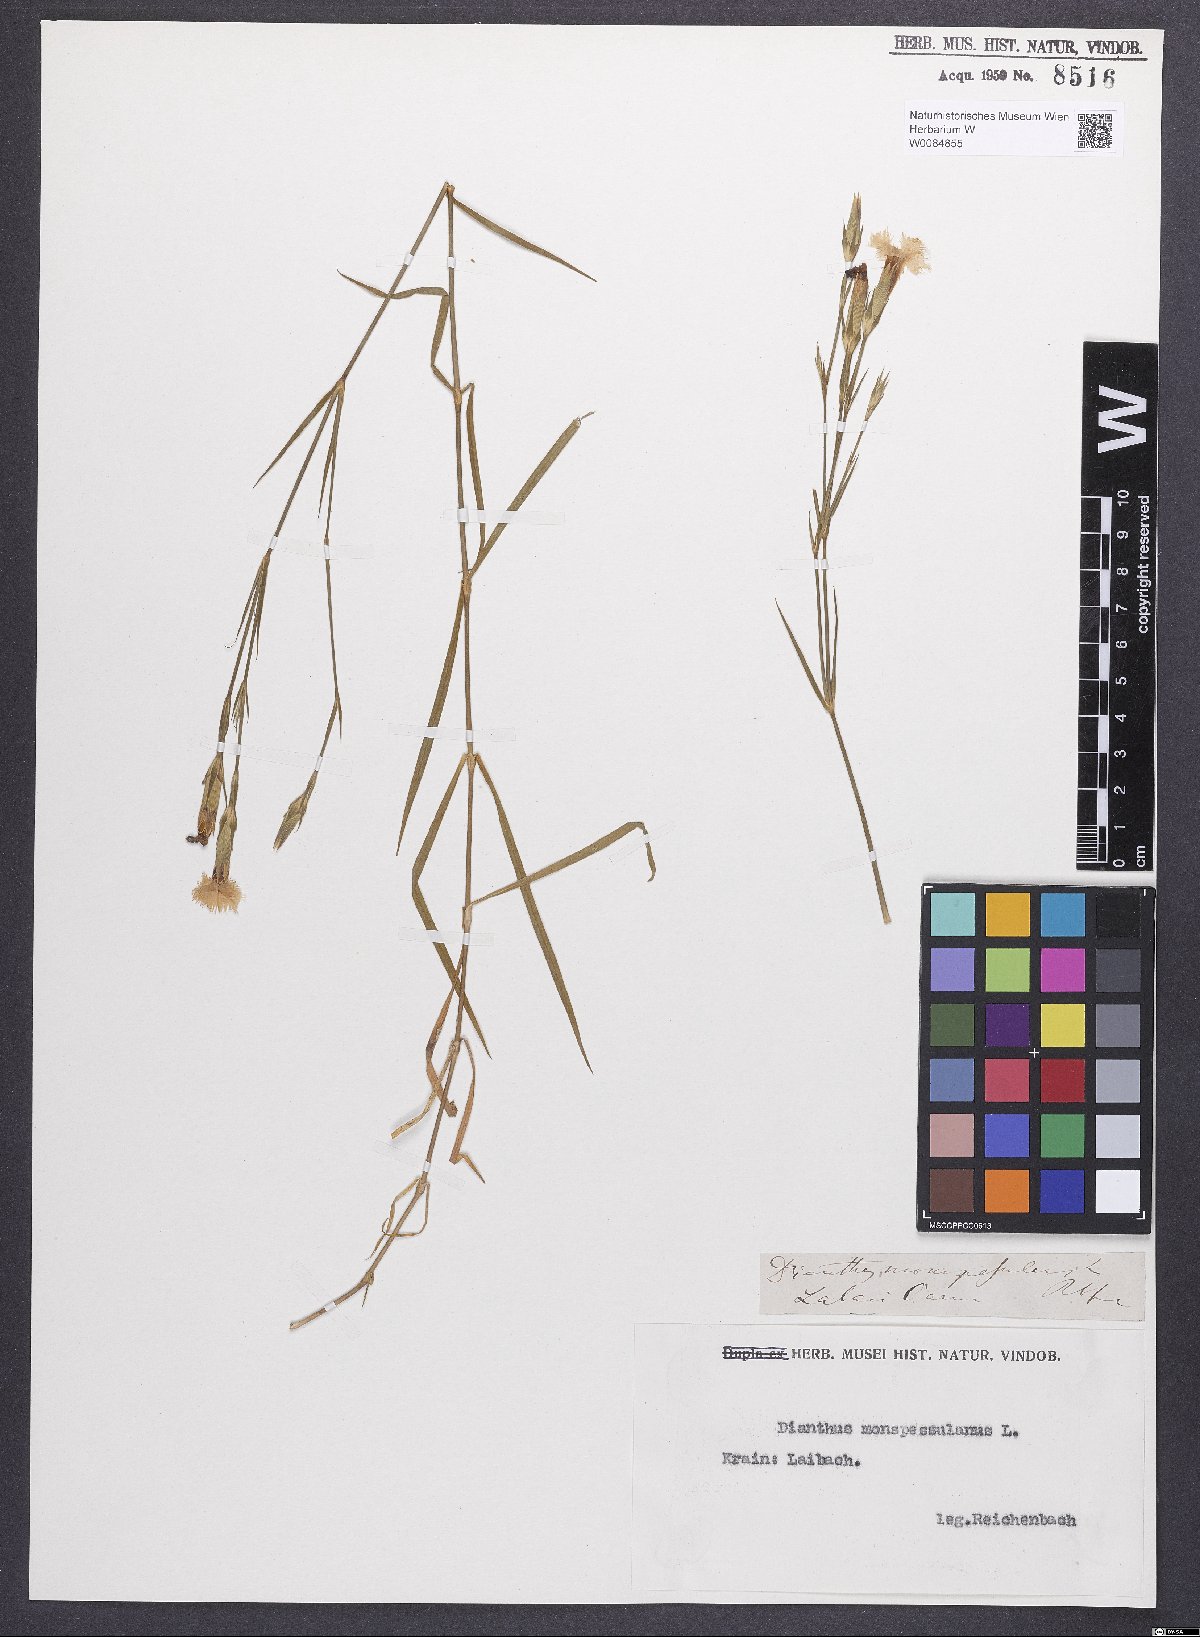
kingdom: Plantae
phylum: Tracheophyta
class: Magnoliopsida
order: Caryophyllales
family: Caryophyllaceae
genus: Dianthus
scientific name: Dianthus hyssopifolius
